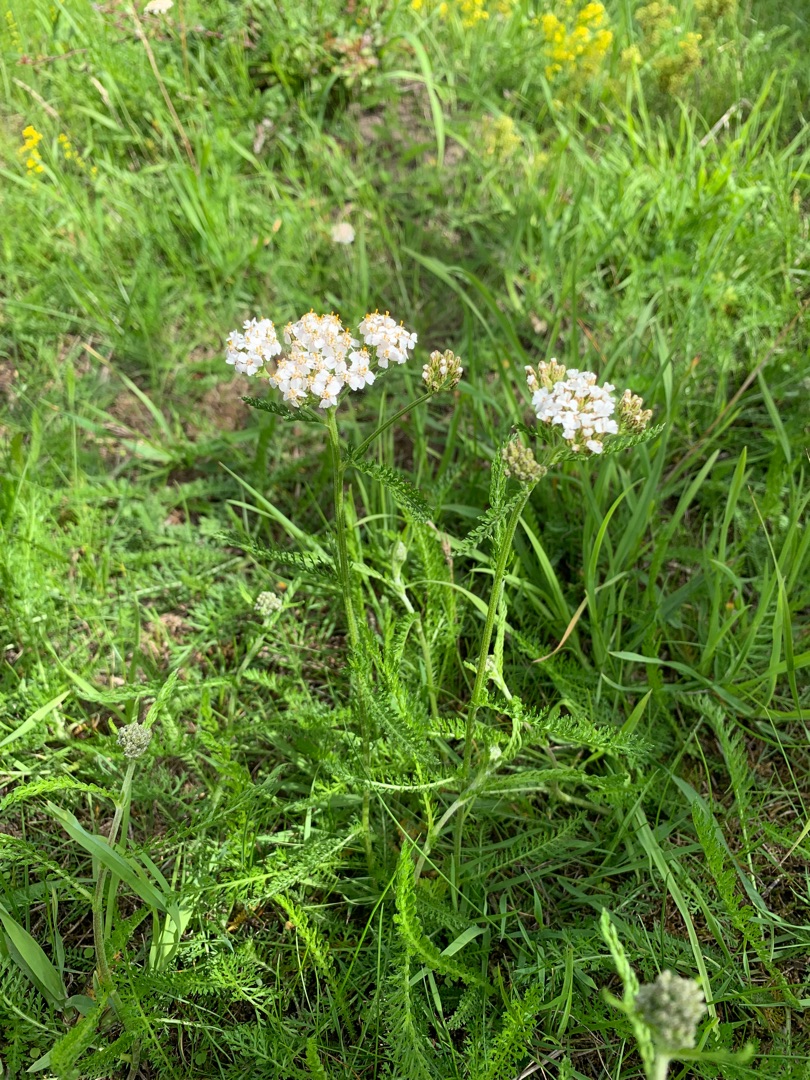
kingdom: Plantae
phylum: Tracheophyta
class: Magnoliopsida
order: Asterales
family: Asteraceae
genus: Achillea
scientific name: Achillea millefolium
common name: Almindelig røllike
